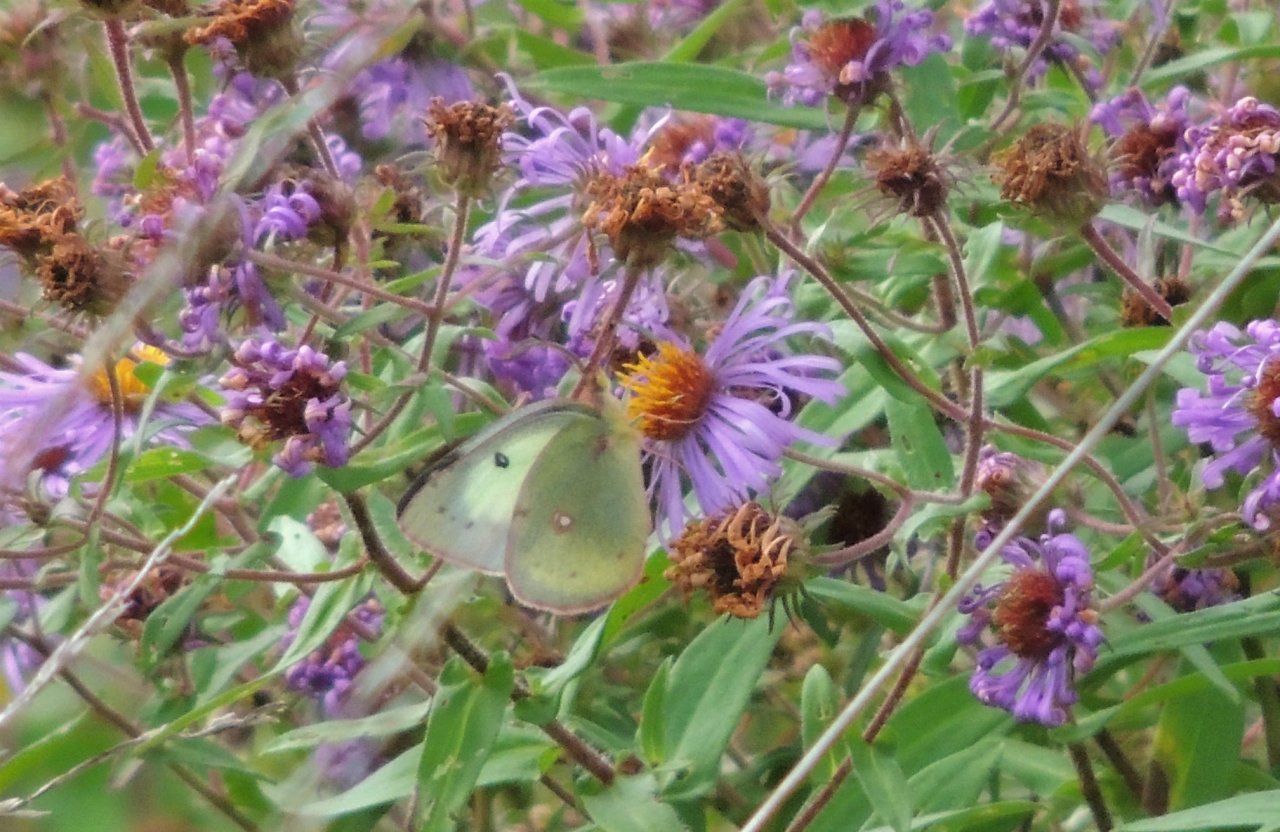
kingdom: Animalia
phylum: Arthropoda
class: Insecta
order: Lepidoptera
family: Pieridae
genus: Colias
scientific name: Colias philodice
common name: Clouded Sulphur
